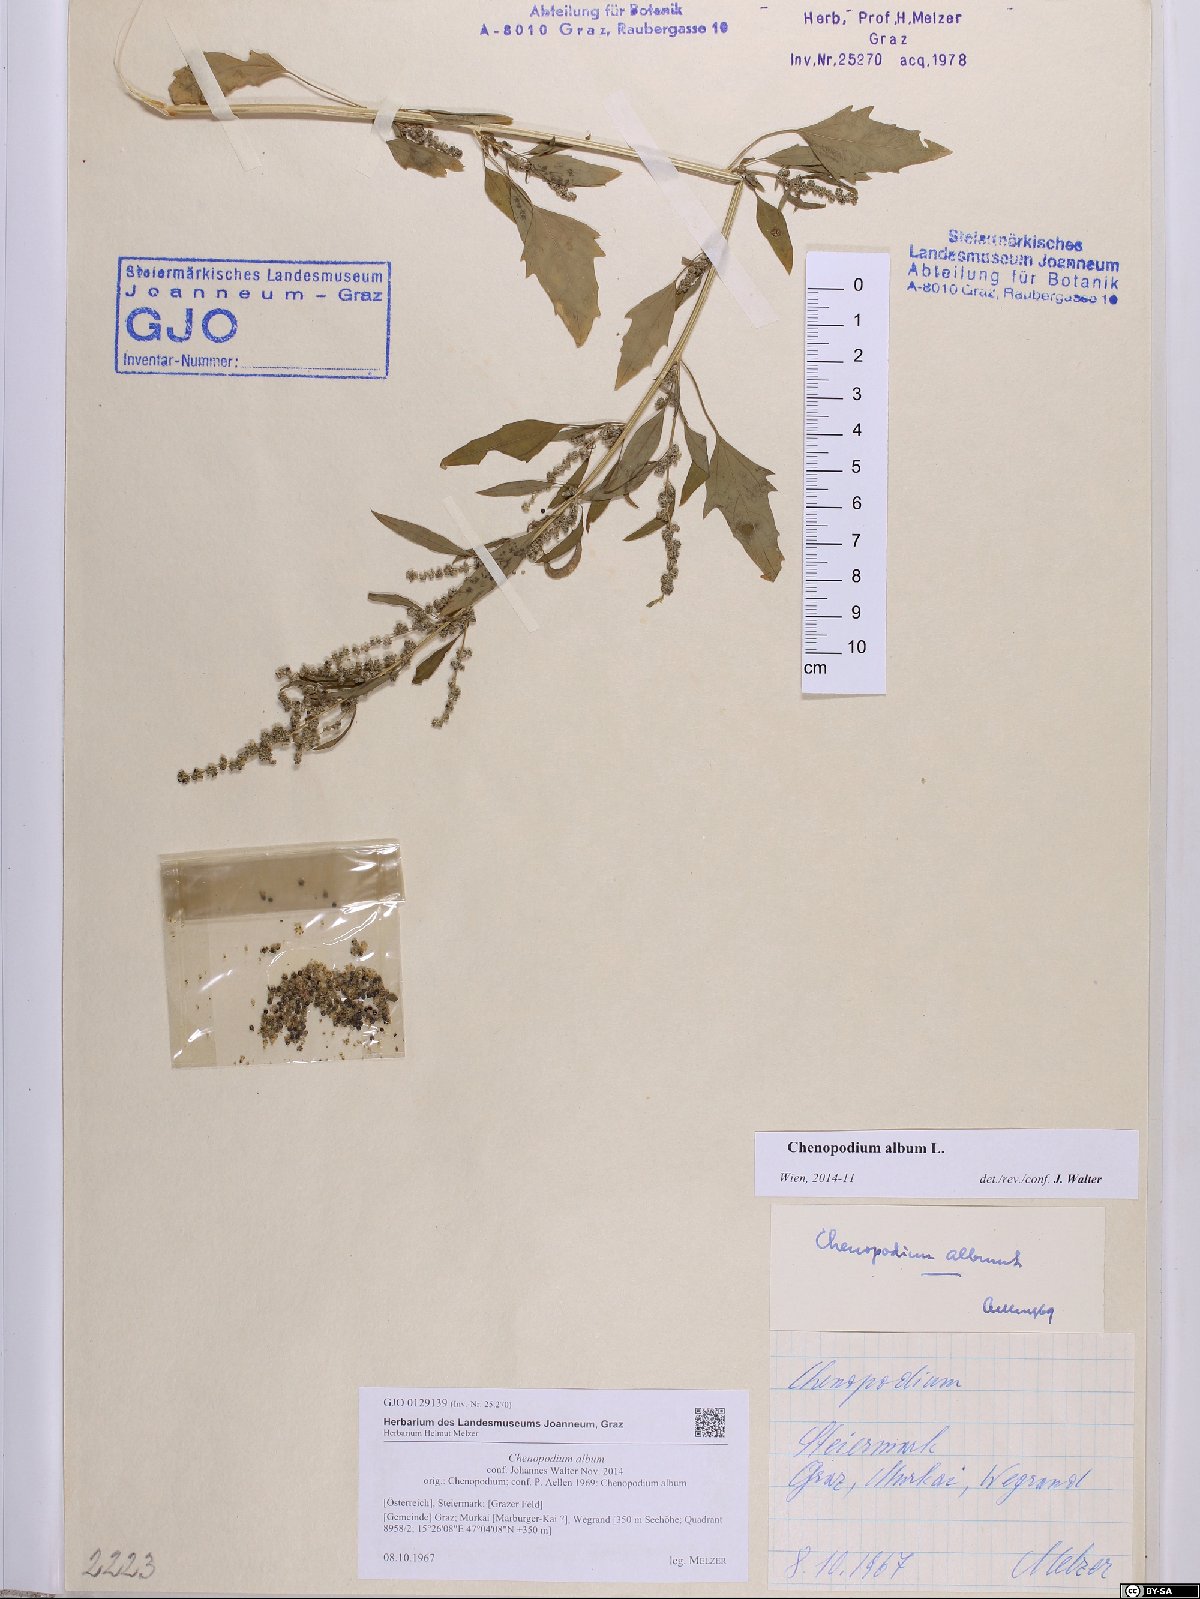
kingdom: Plantae
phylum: Tracheophyta
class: Magnoliopsida
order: Caryophyllales
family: Amaranthaceae
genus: Chenopodium
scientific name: Chenopodium album
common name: Fat-hen
